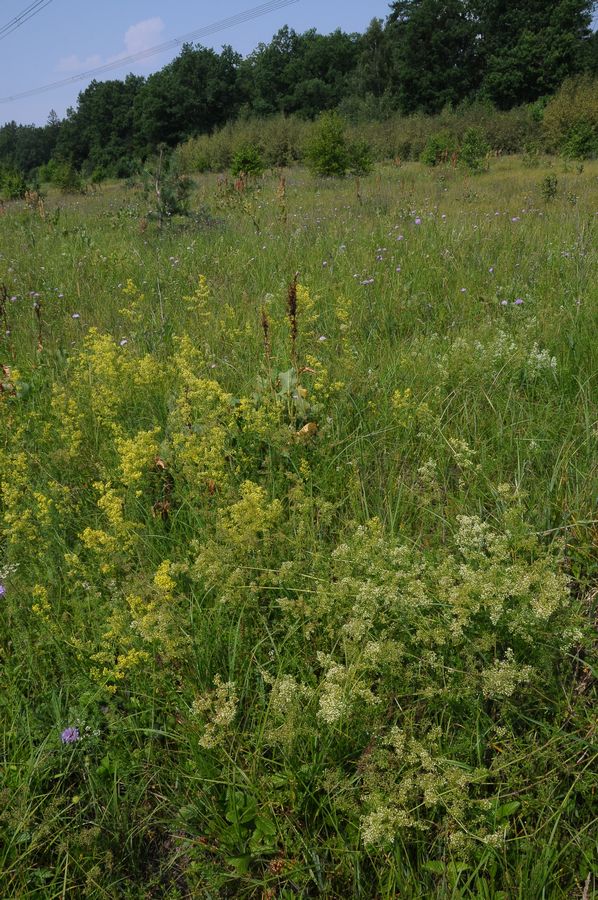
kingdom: Plantae
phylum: Tracheophyta
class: Magnoliopsida
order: Gentianales
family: Rubiaceae
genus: Galium
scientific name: Galium
